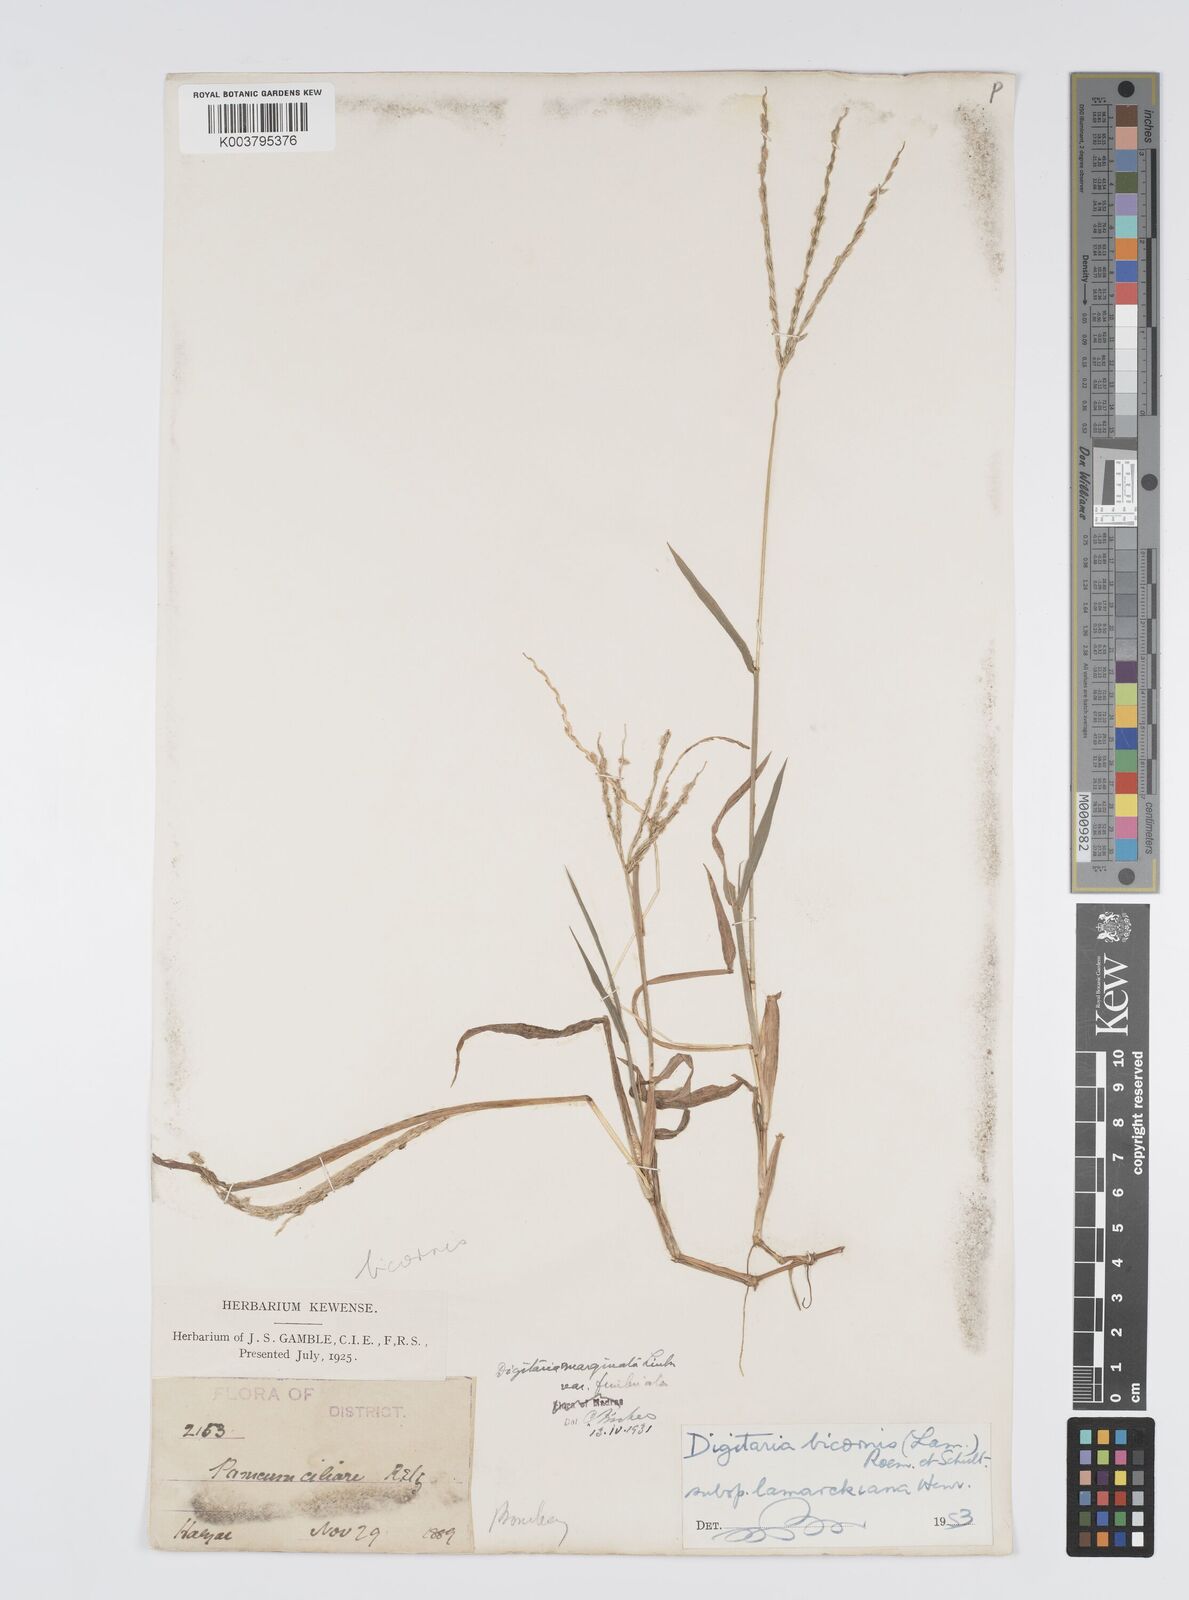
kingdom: Plantae
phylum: Tracheophyta
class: Liliopsida
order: Poales
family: Poaceae
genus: Digitaria
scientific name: Digitaria ciliaris
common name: Tropical finger-grass
